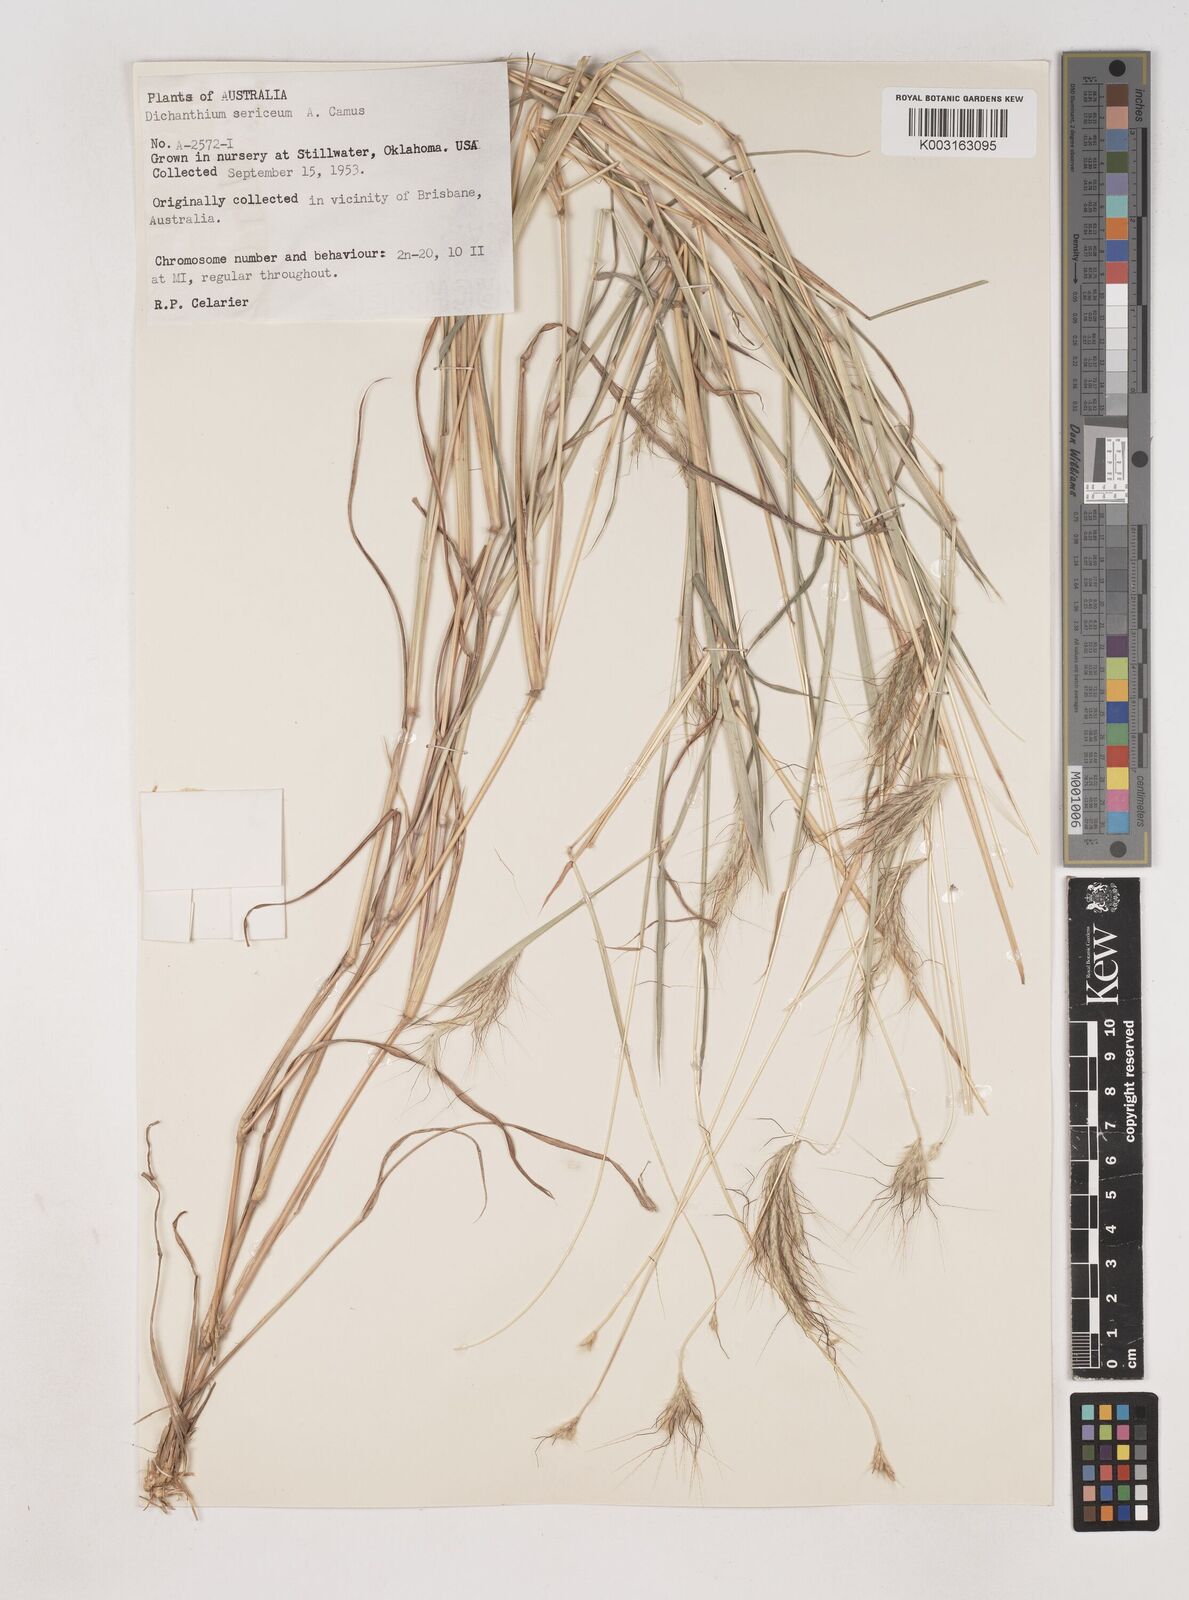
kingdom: Plantae
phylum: Tracheophyta
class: Liliopsida
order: Poales
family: Poaceae
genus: Dichanthium
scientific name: Dichanthium sericeum
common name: Silky bluestem
